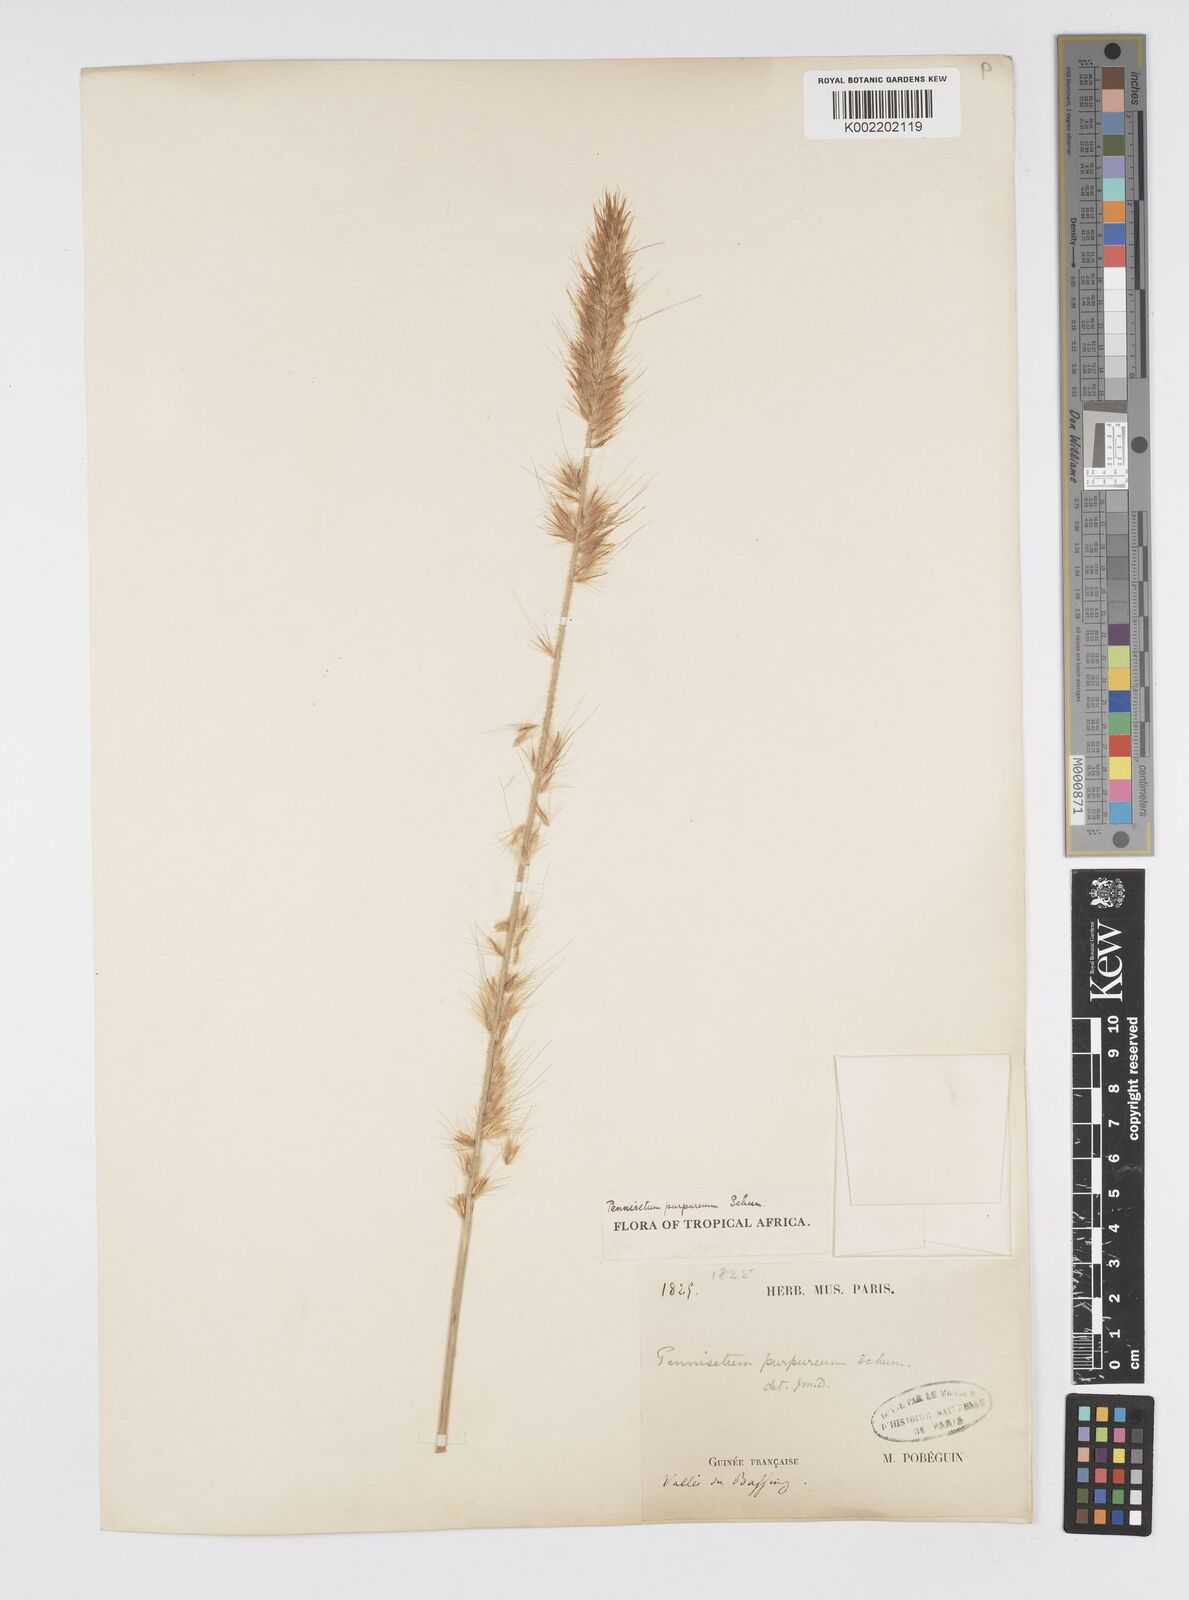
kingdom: Plantae
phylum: Tracheophyta
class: Liliopsida
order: Poales
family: Poaceae
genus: Cenchrus
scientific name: Cenchrus purpureus
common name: Elephant grass
